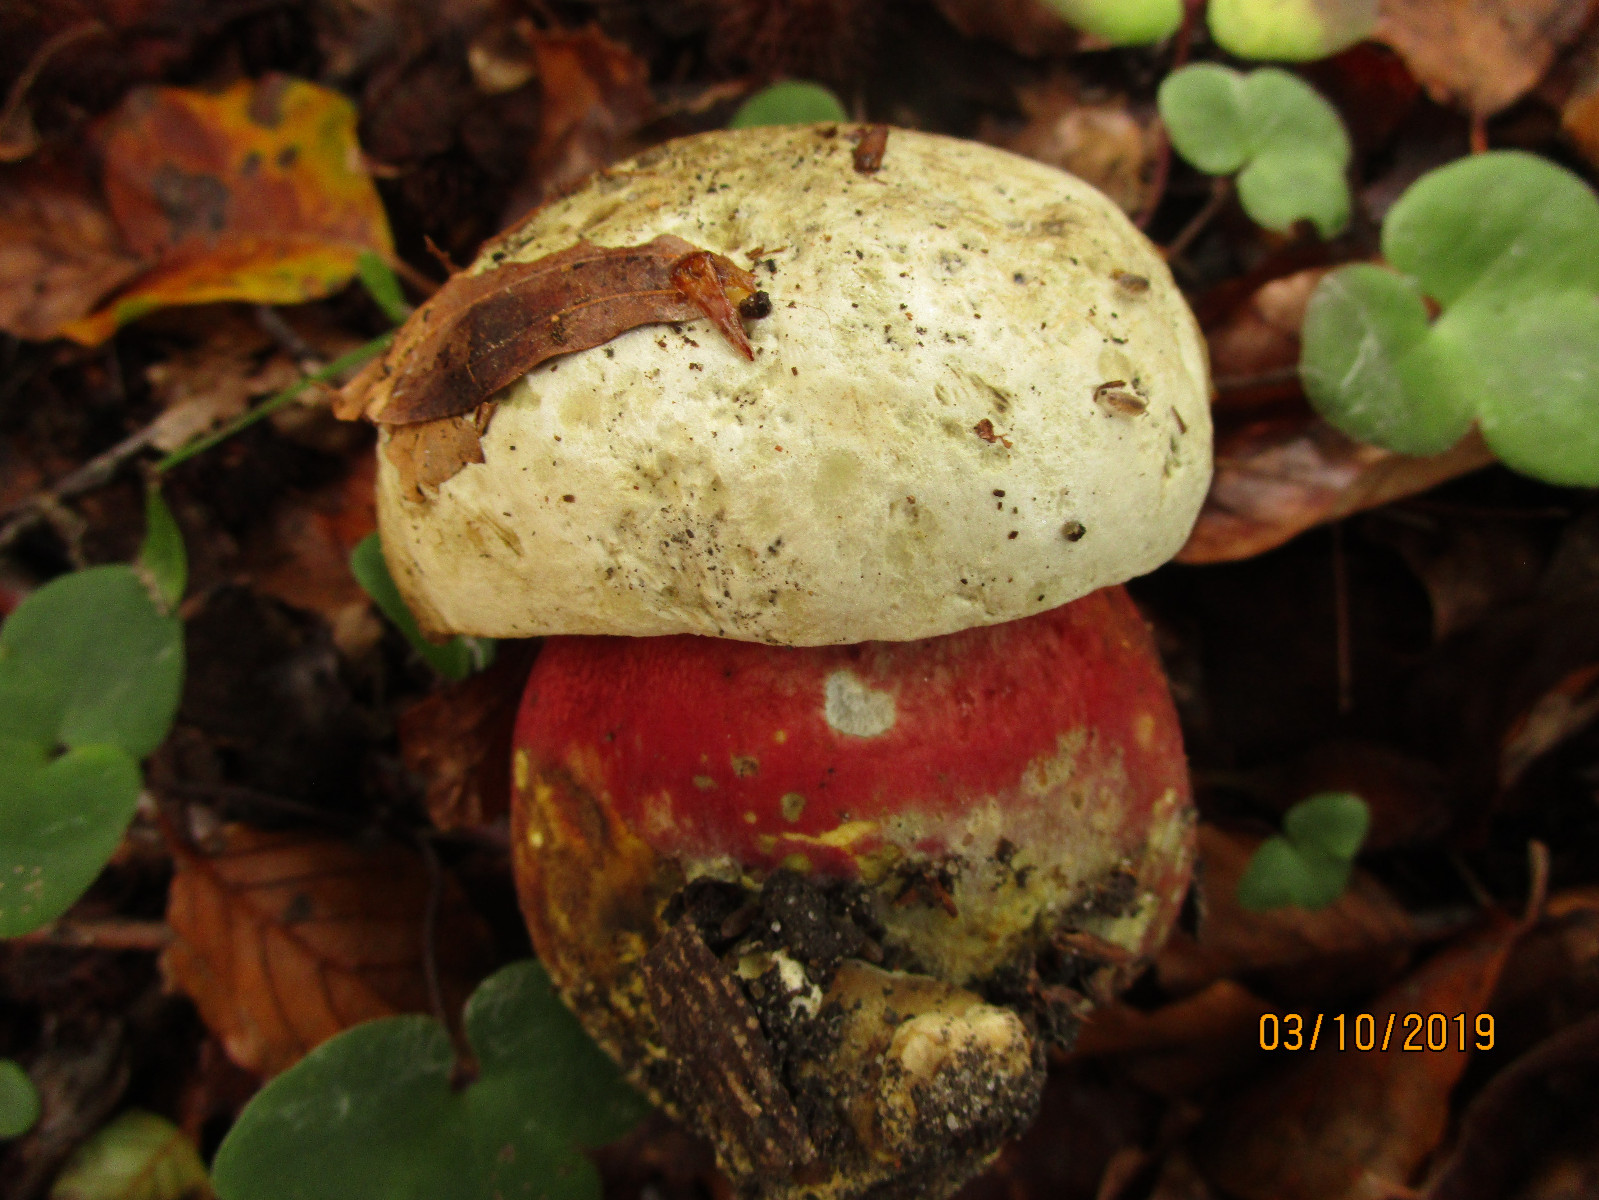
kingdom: Fungi
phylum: Basidiomycota
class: Agaricomycetes
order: Boletales
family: Boletaceae
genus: Rubroboletus
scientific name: Rubroboletus satanas
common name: Satans rørhat
